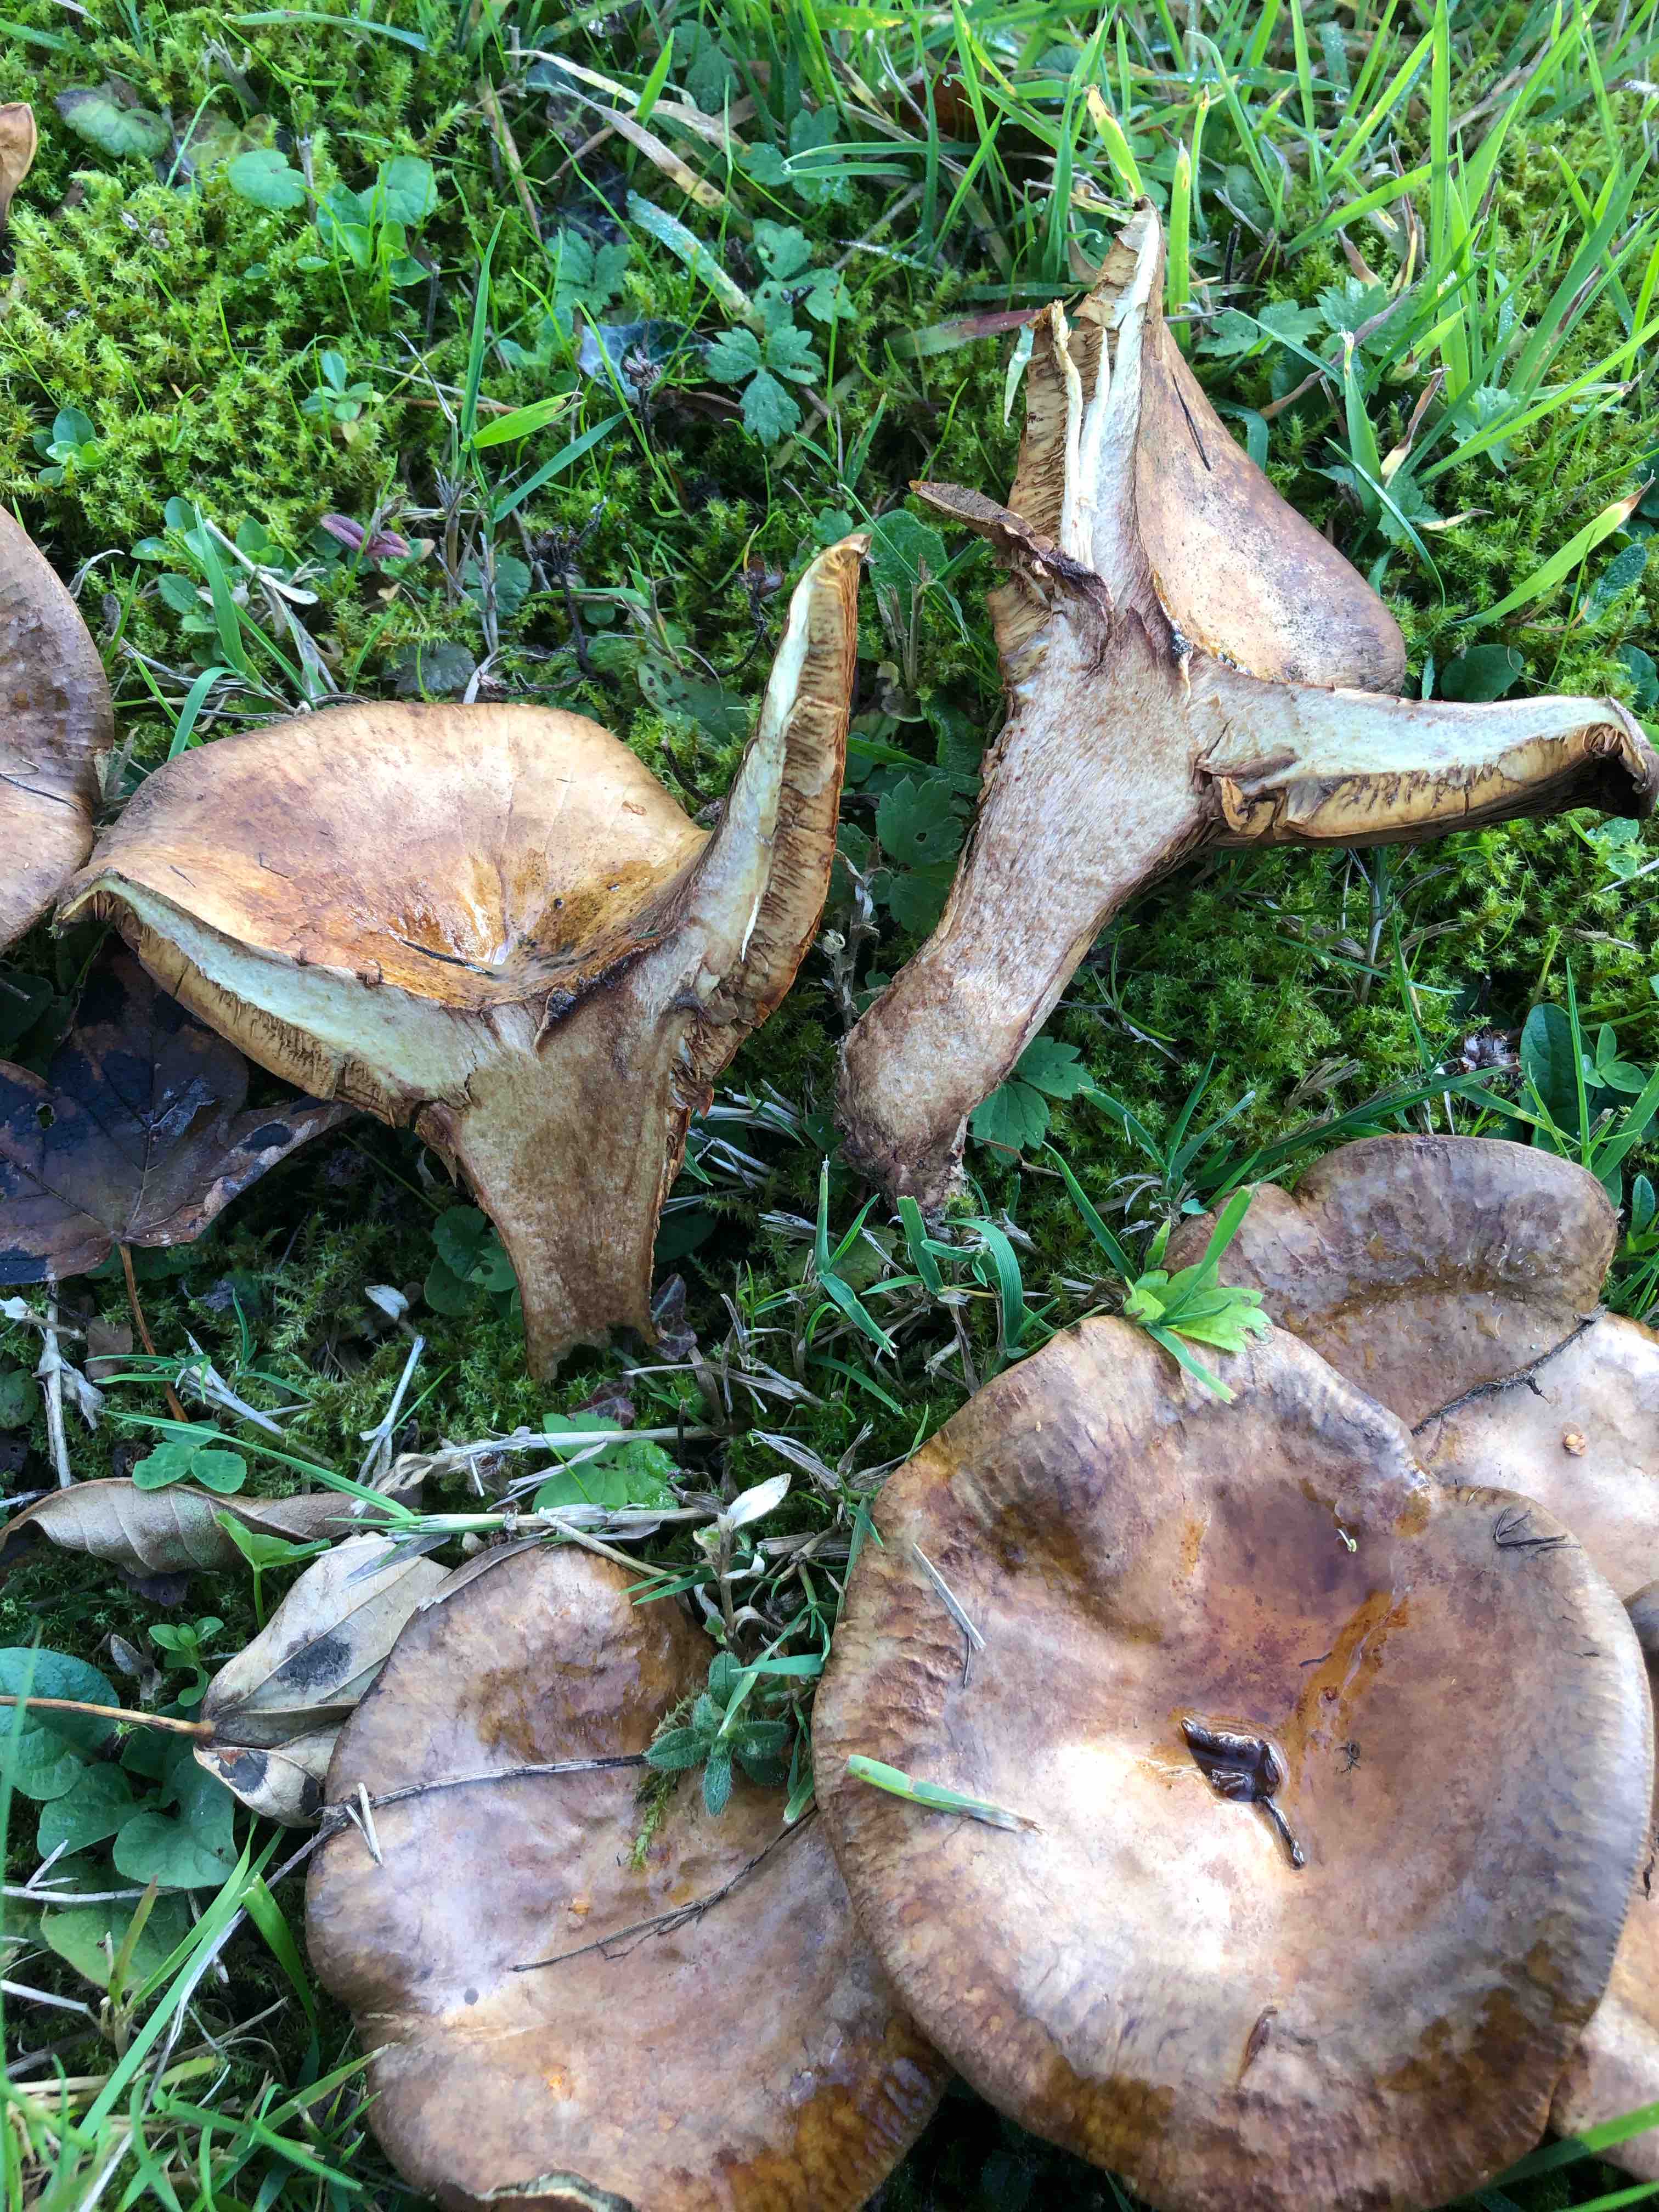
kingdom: Fungi
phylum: Basidiomycota
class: Agaricomycetes
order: Boletales
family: Paxillaceae
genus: Paxillus
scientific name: Paxillus
